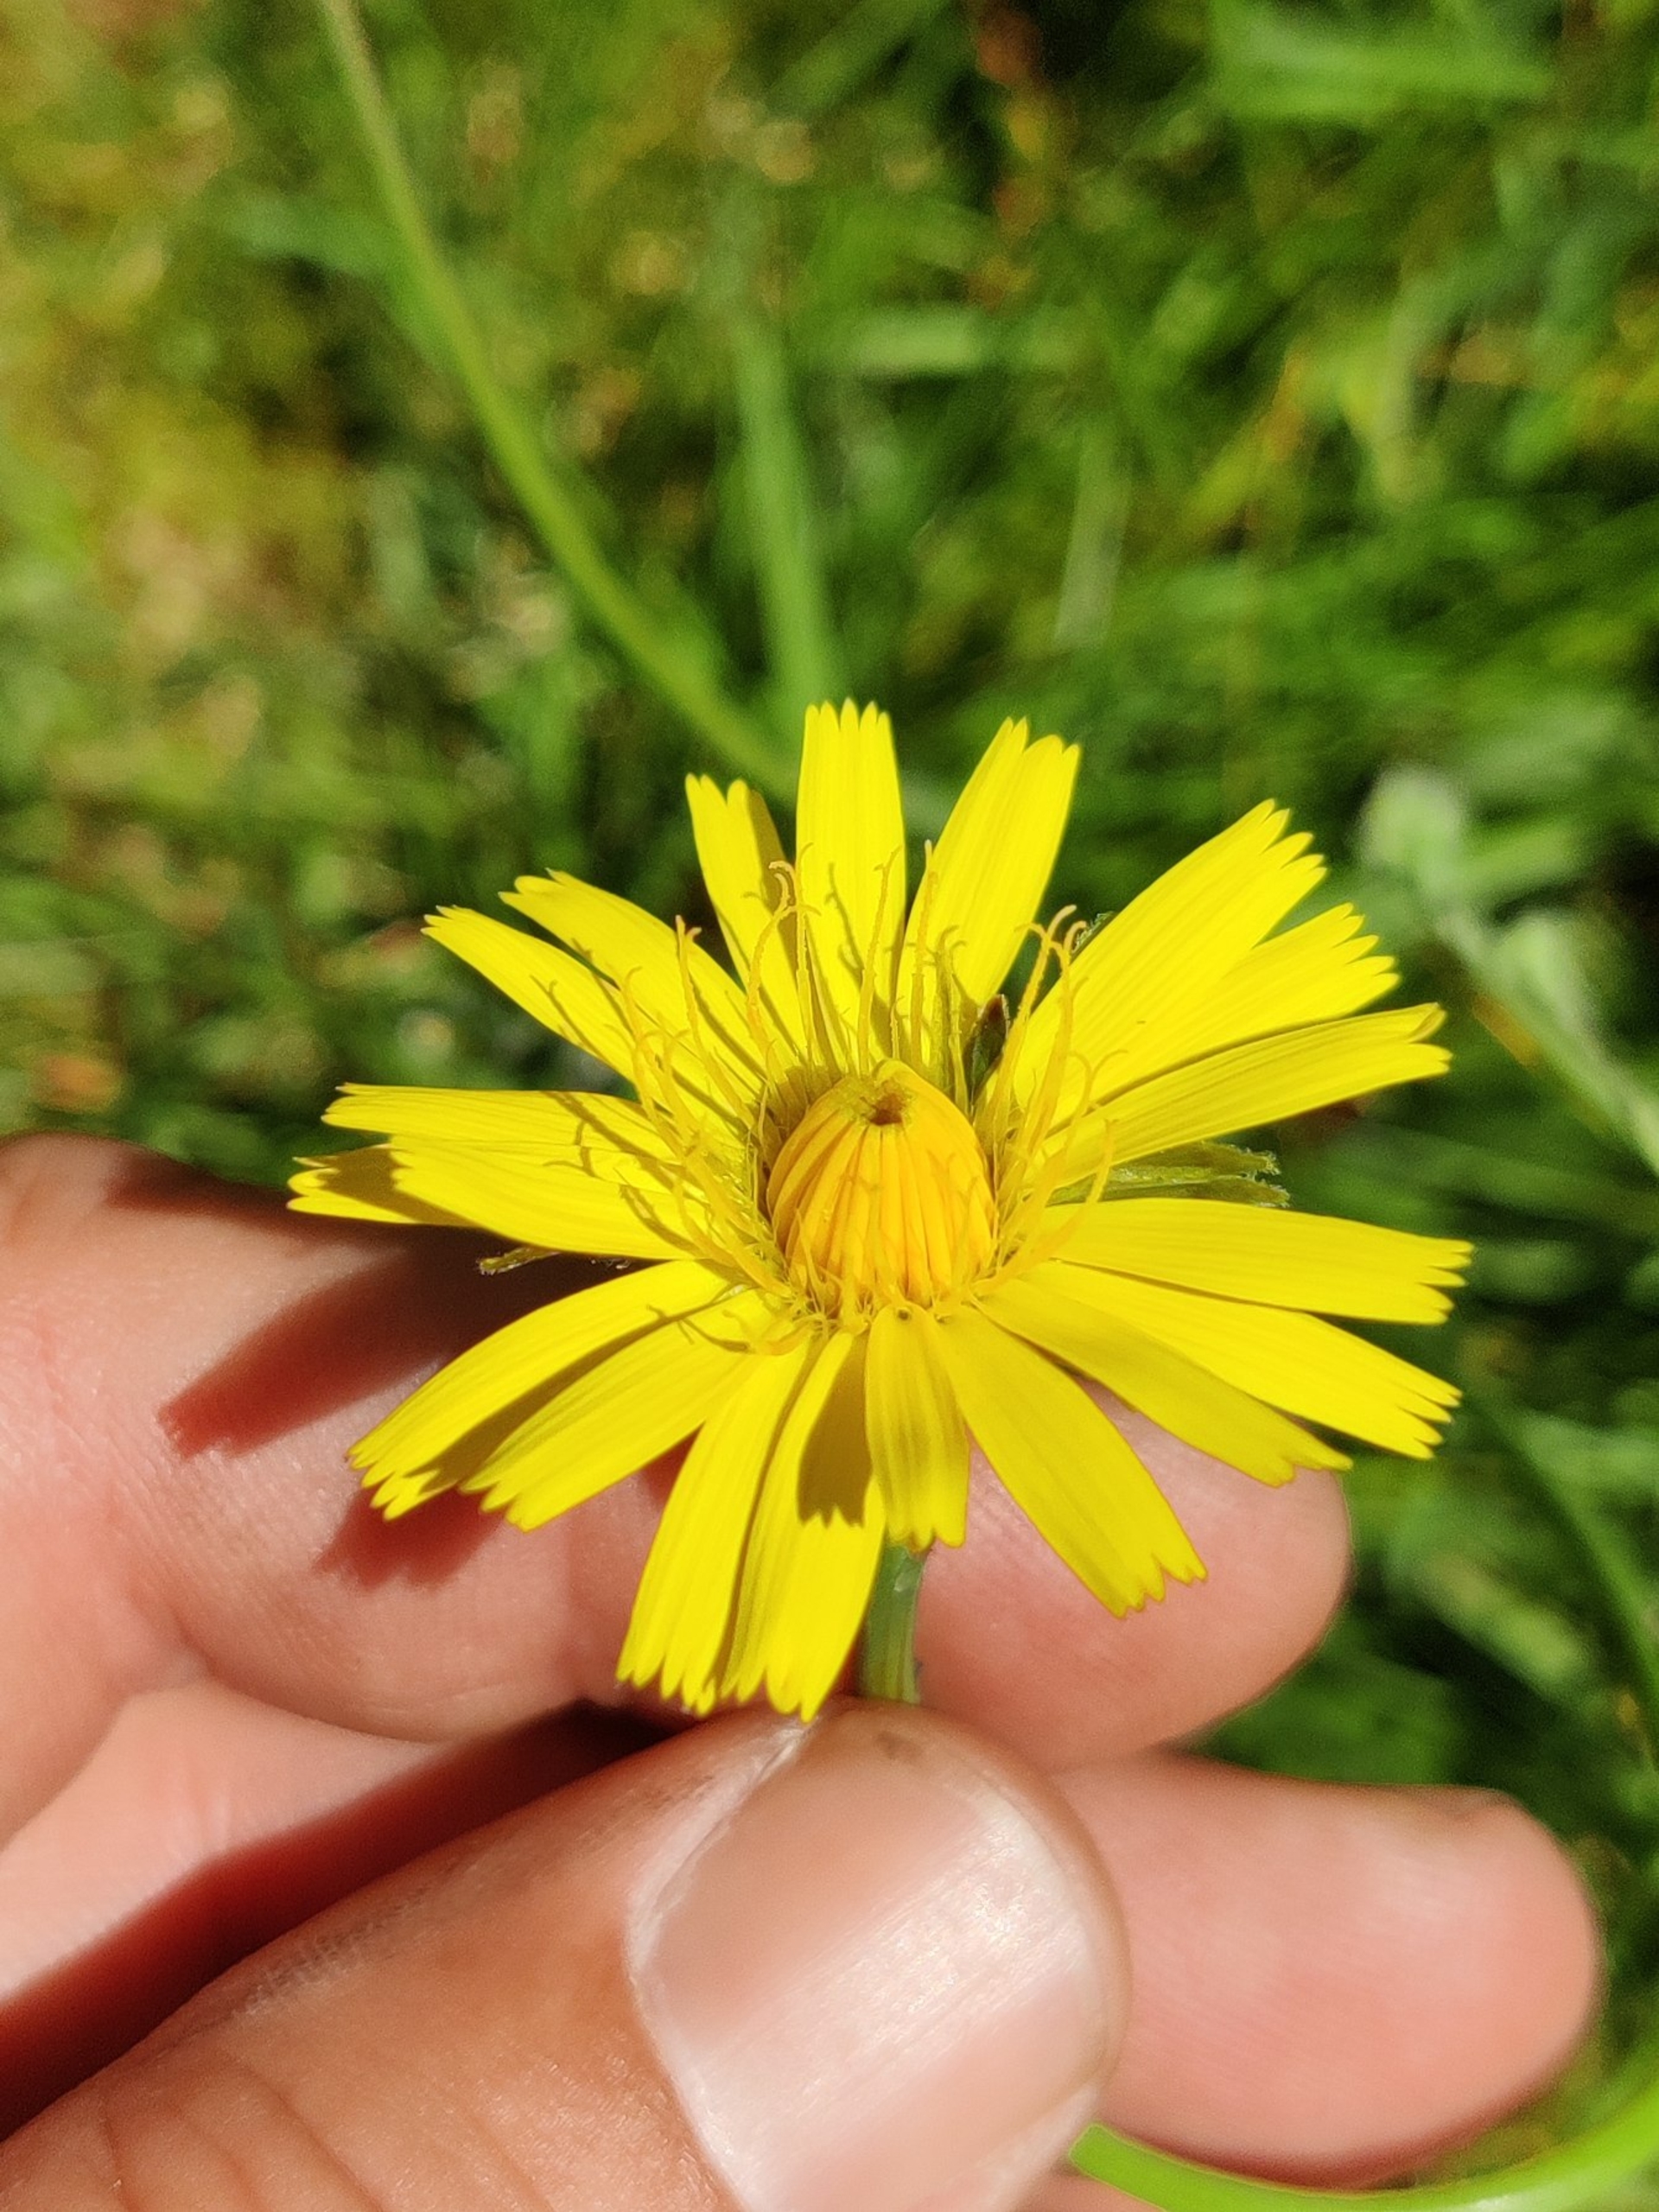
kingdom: Plantae
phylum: Tracheophyta
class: Magnoliopsida
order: Asterales
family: Asteraceae
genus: Hypochaeris
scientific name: Hypochaeris radicata
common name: Almindelig kongepen
